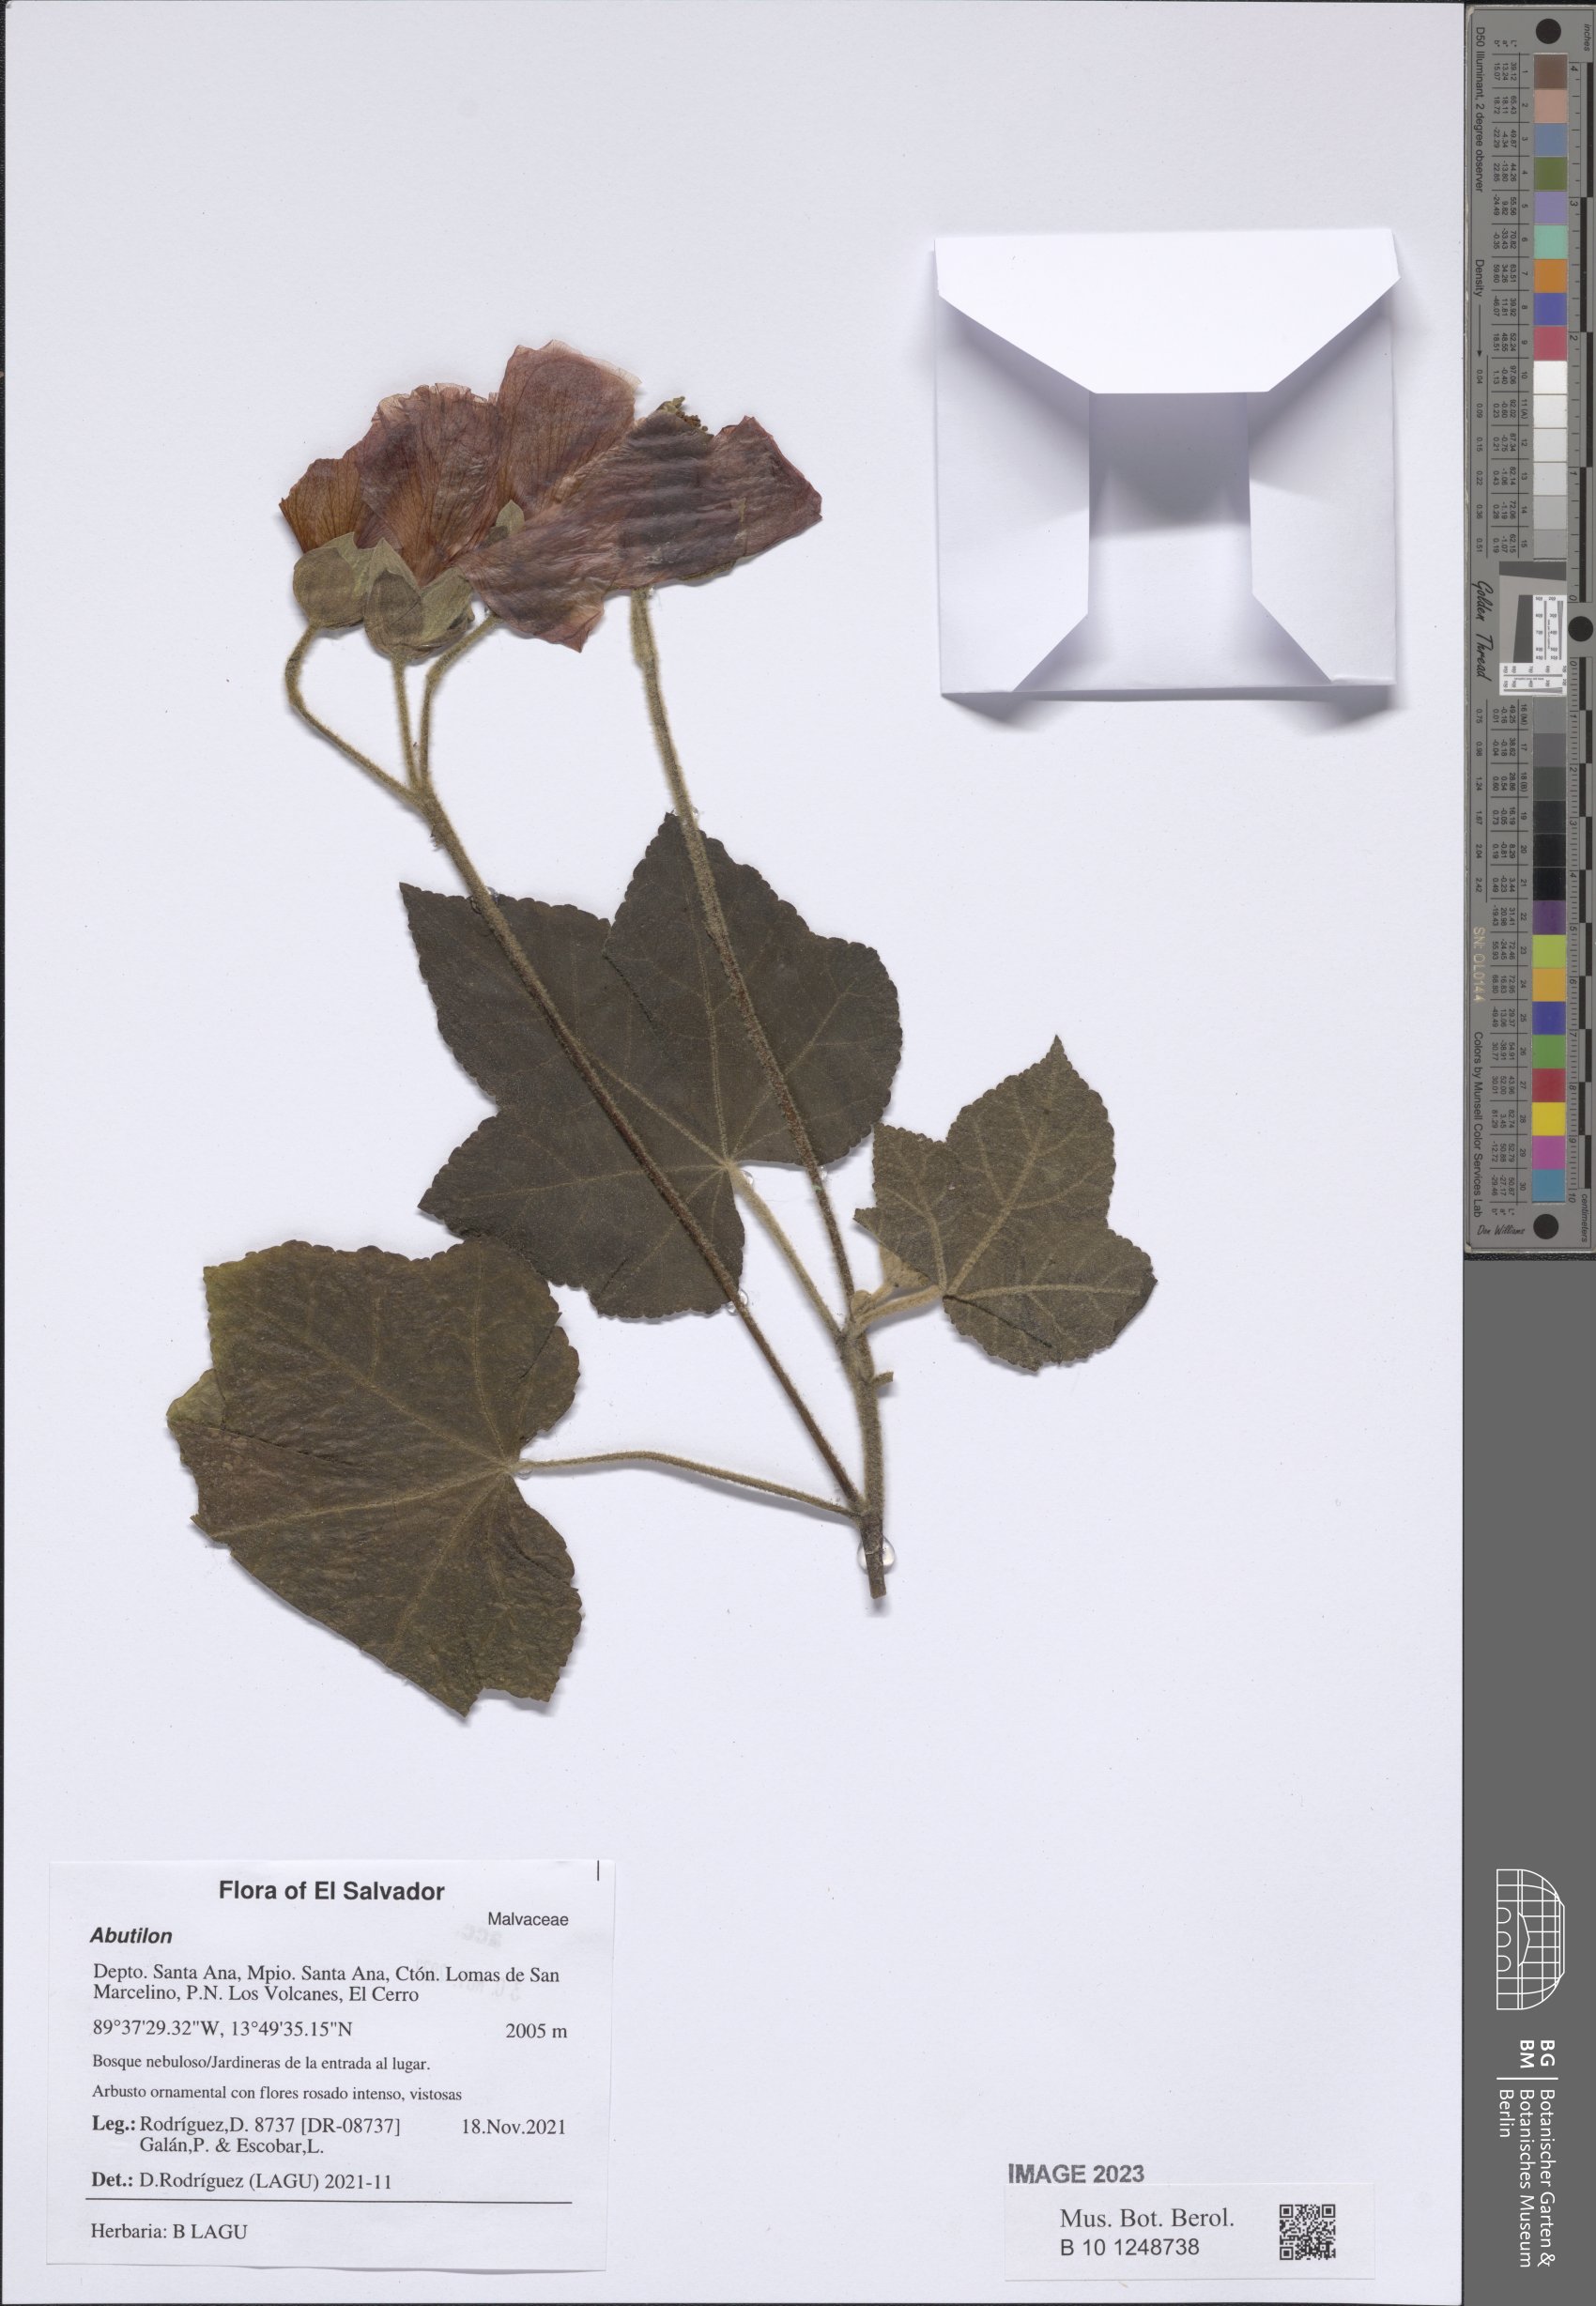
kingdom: Plantae
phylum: Tracheophyta
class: Magnoliopsida
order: Malvales
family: Malvaceae
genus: Abutilon
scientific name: Abutilon
